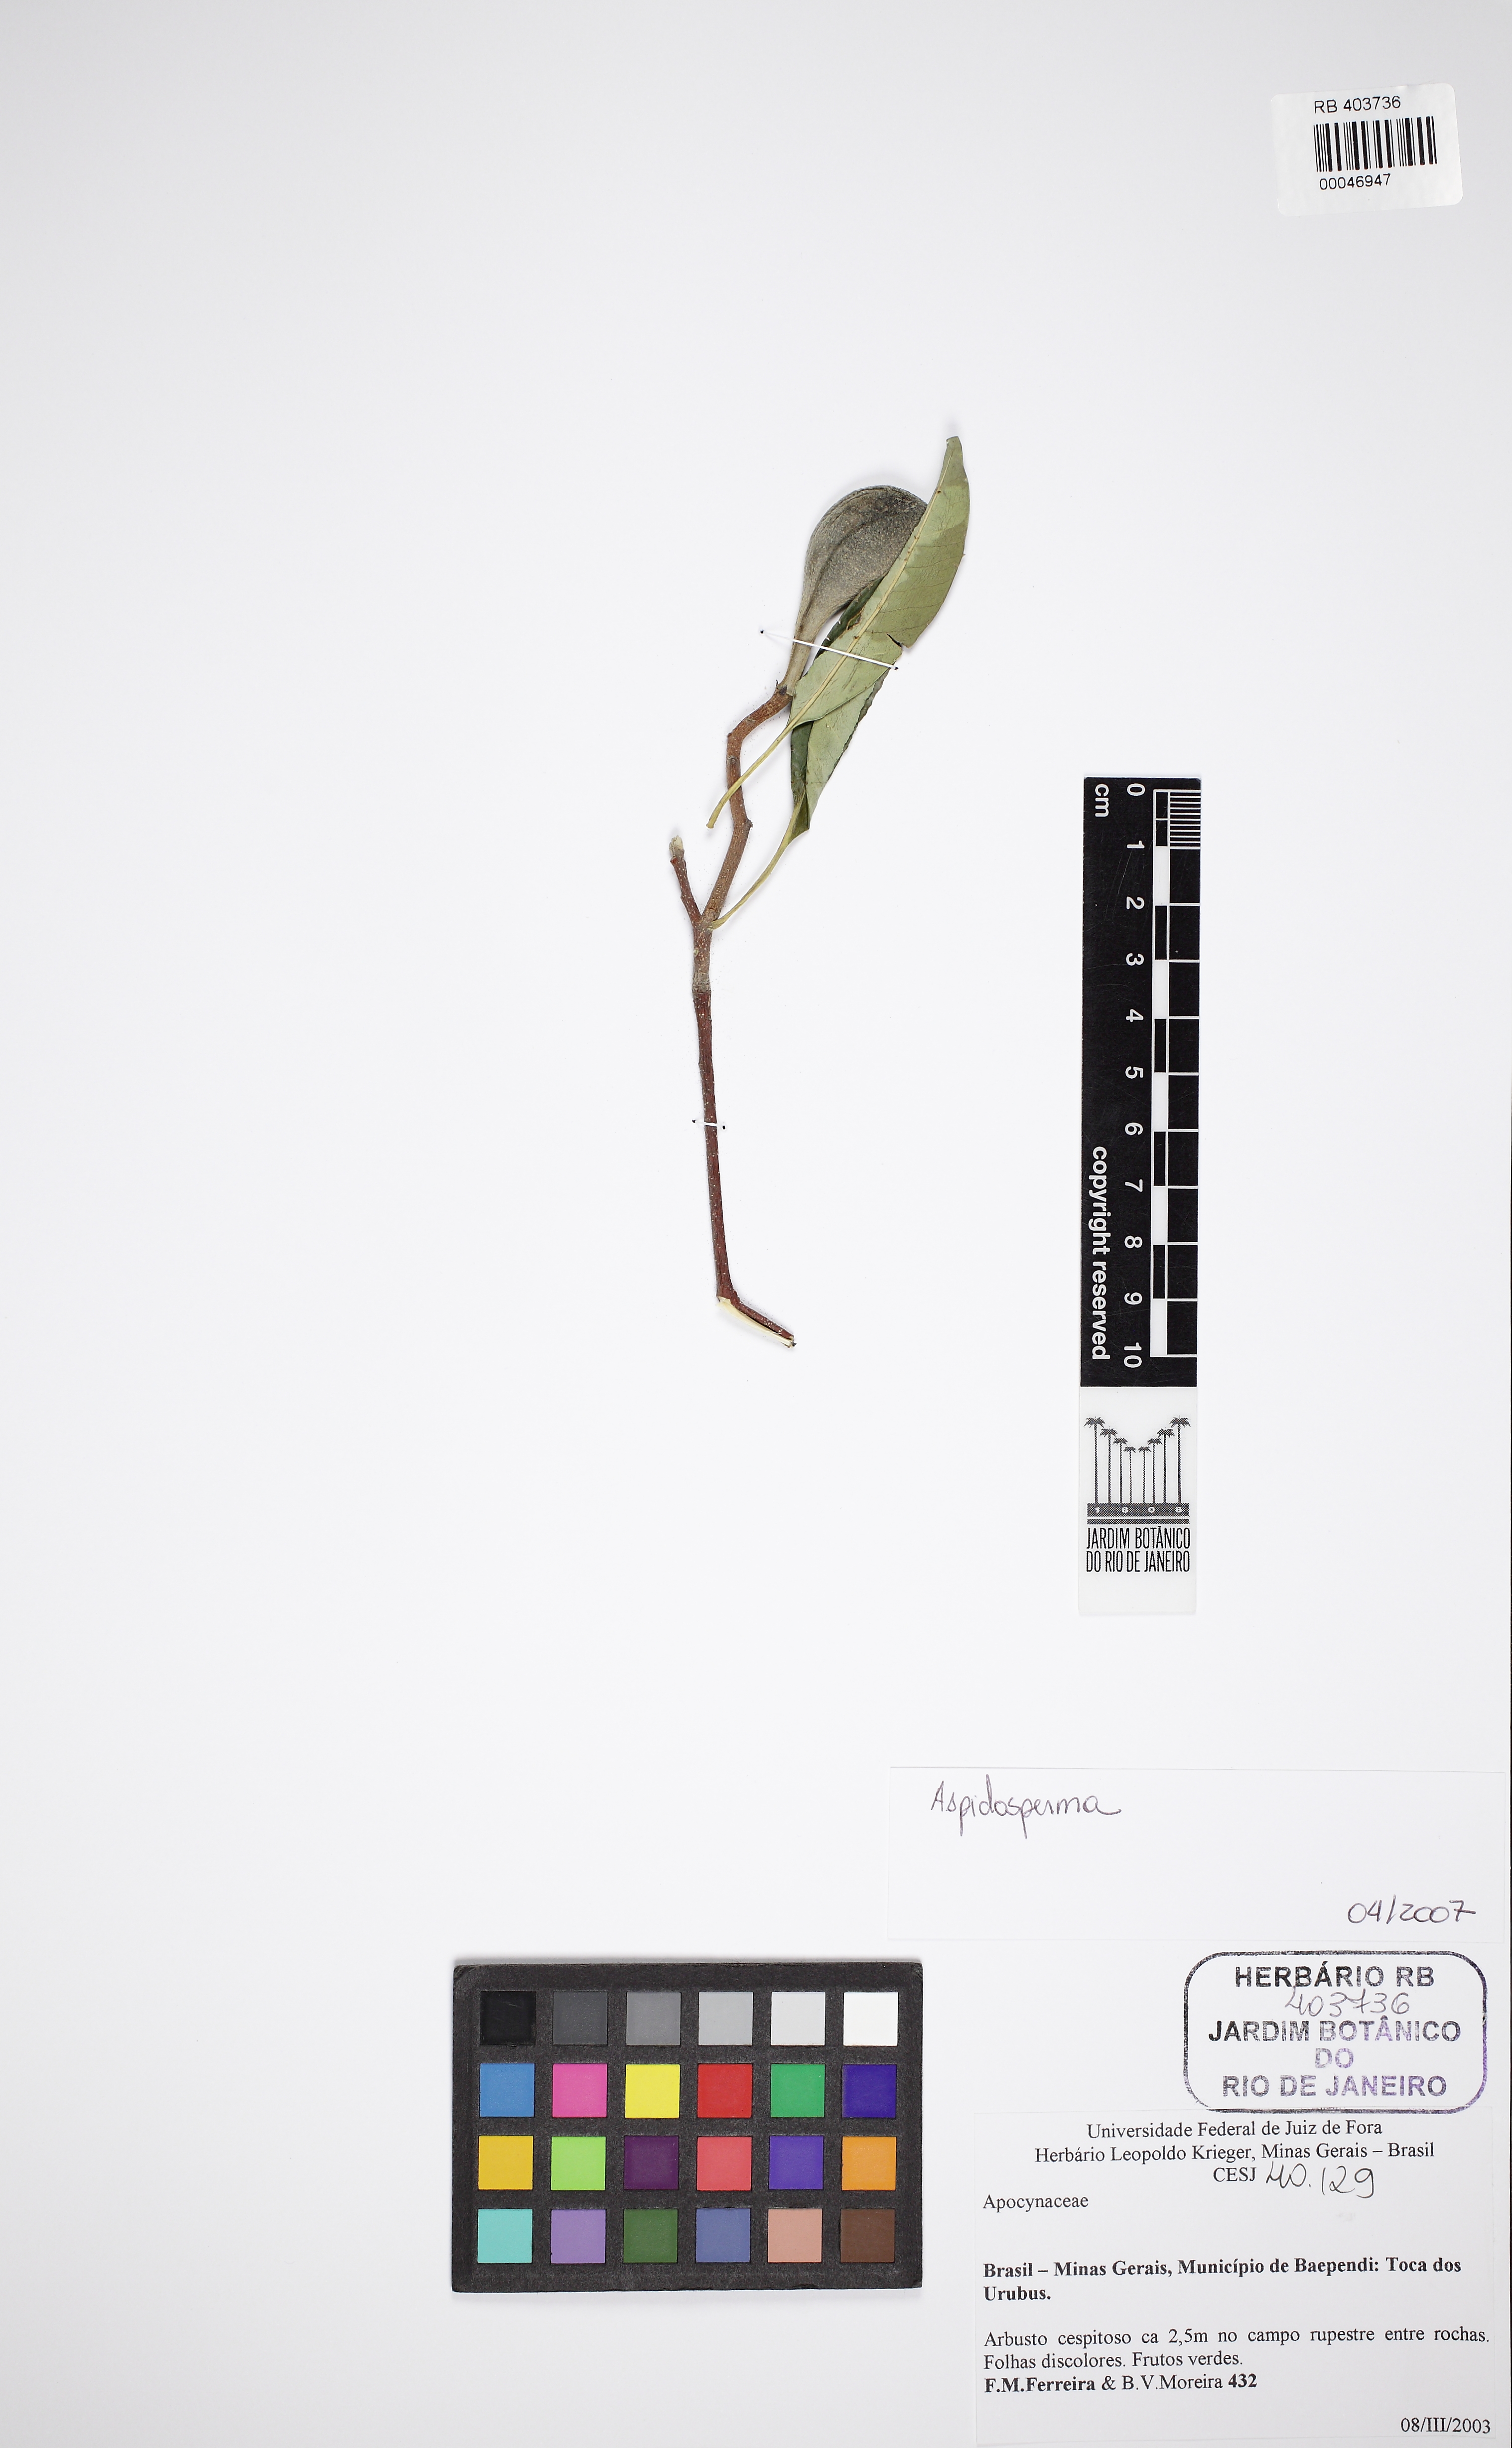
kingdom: Plantae
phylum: Tracheophyta
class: Magnoliopsida
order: Gentianales
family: Apocynaceae
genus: Aspidosperma
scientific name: Aspidosperma australe
